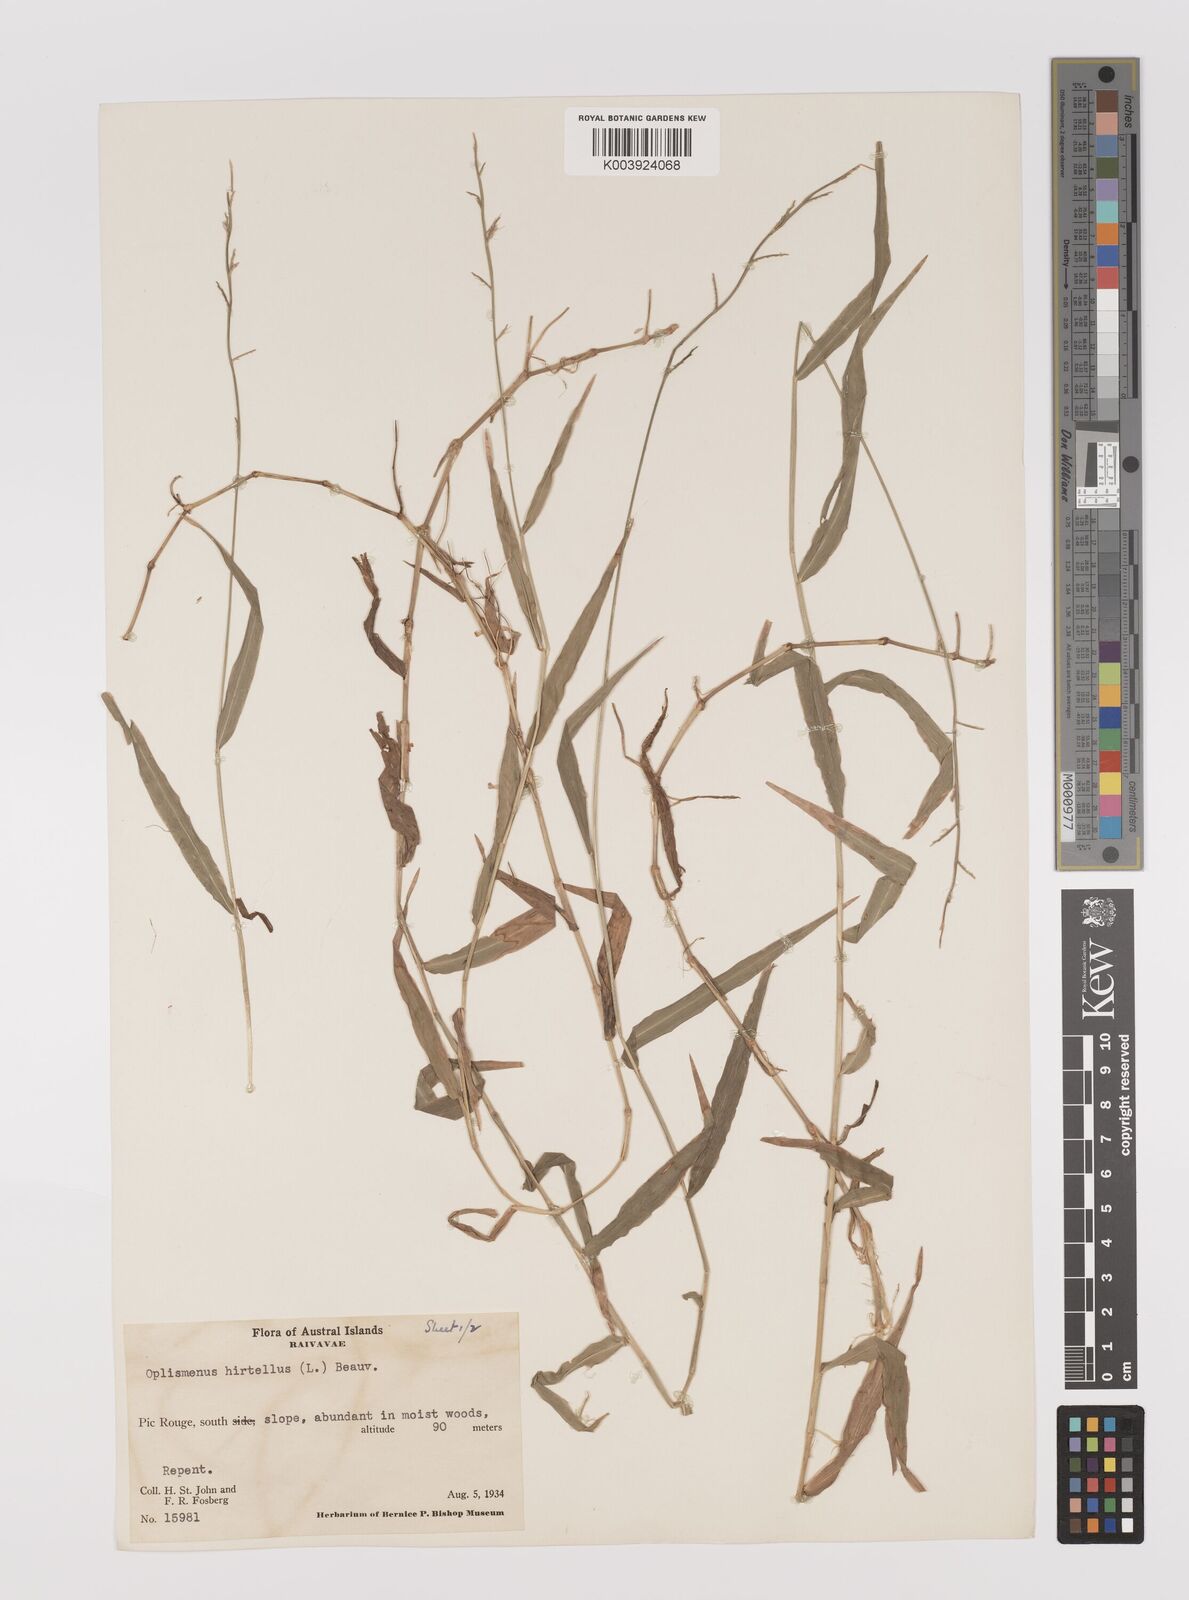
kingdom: Plantae
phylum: Tracheophyta
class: Liliopsida
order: Poales
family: Poaceae
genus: Oplismenus
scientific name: Oplismenus hirtellus
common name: Basketgrass
